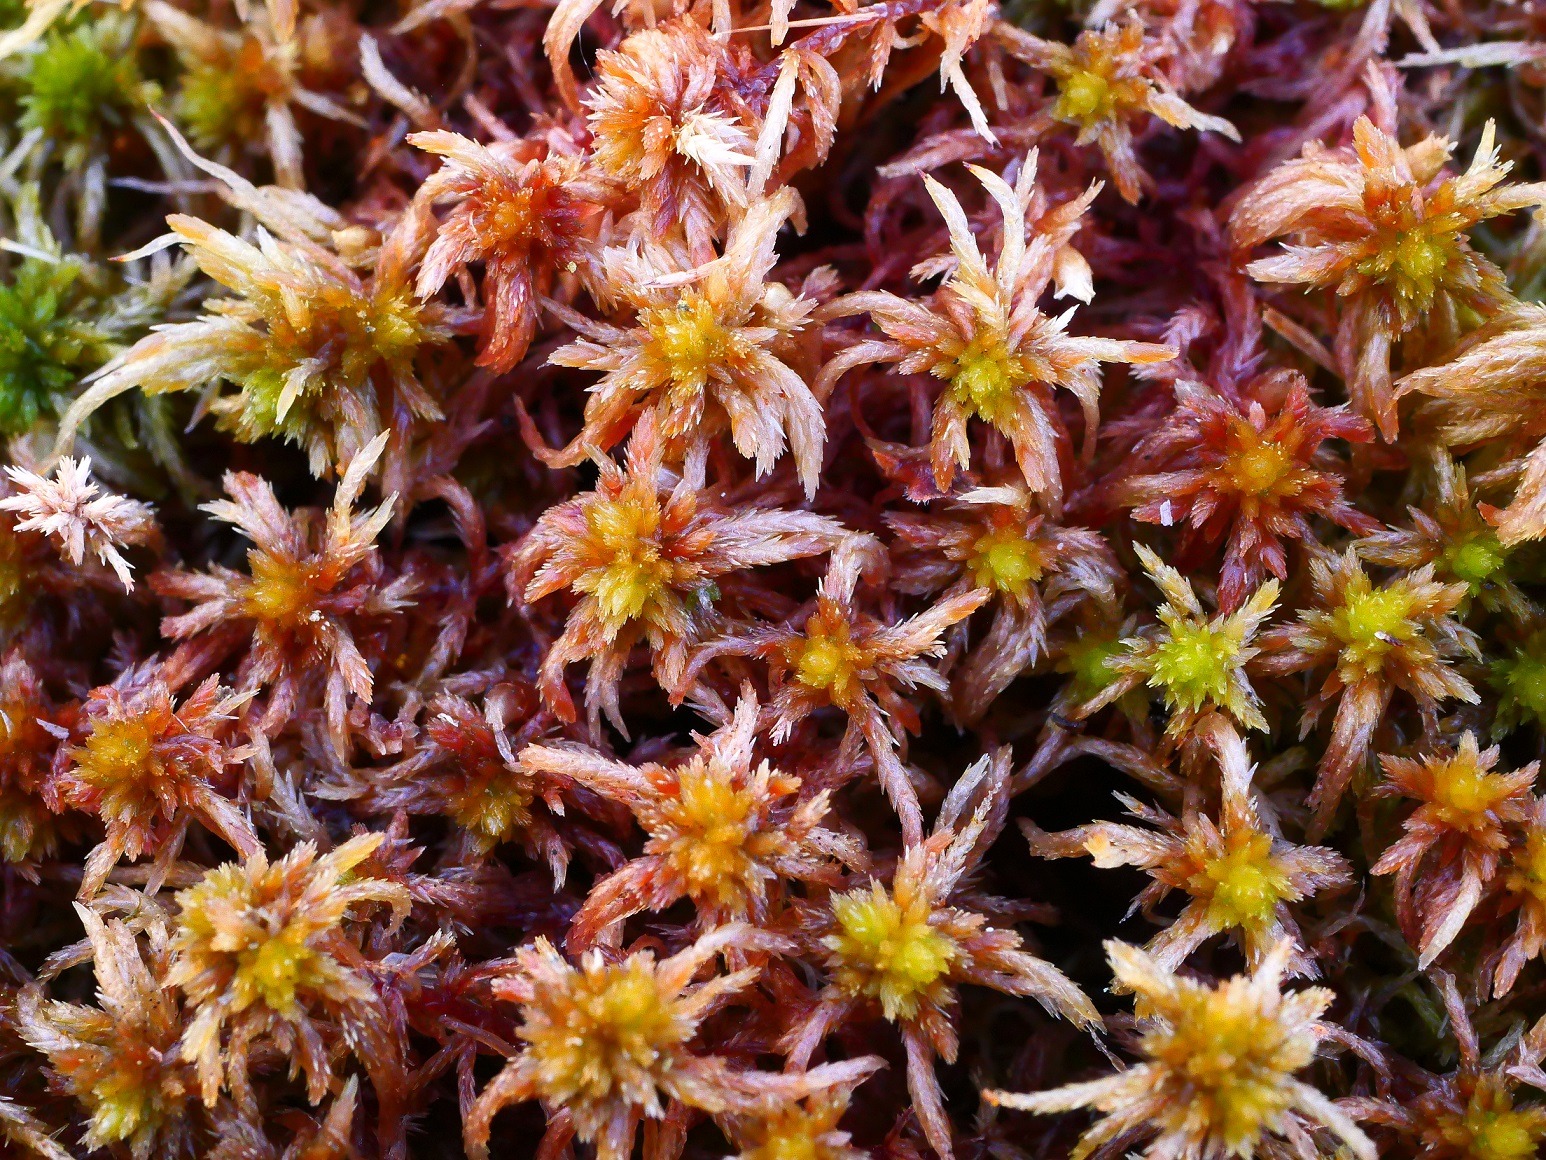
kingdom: Plantae
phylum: Bryophyta
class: Sphagnopsida
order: Sphagnales
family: Sphagnaceae
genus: Sphagnum
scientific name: Sphagnum subnitens
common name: Fedtet tørvemos
